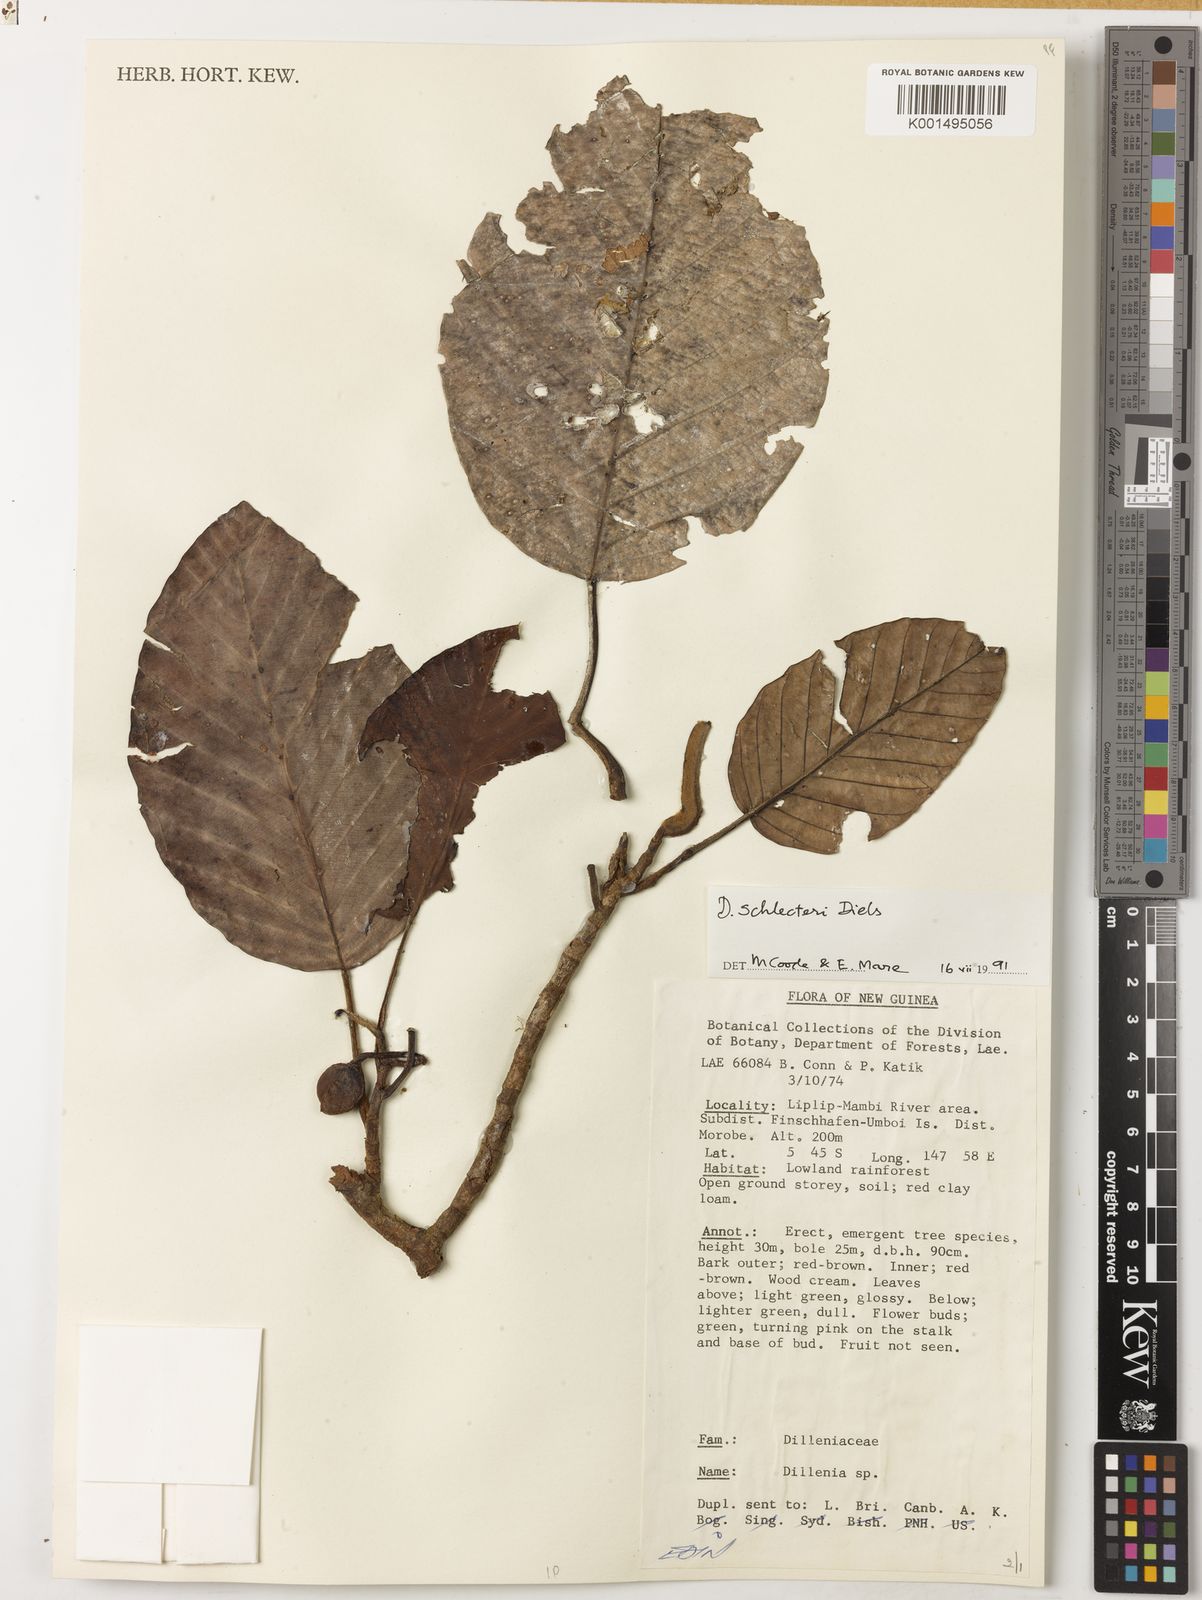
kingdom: Plantae
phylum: Tracheophyta
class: Magnoliopsida
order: Dilleniales
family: Dilleniaceae
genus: Dillenia
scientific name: Dillenia schlechteri
